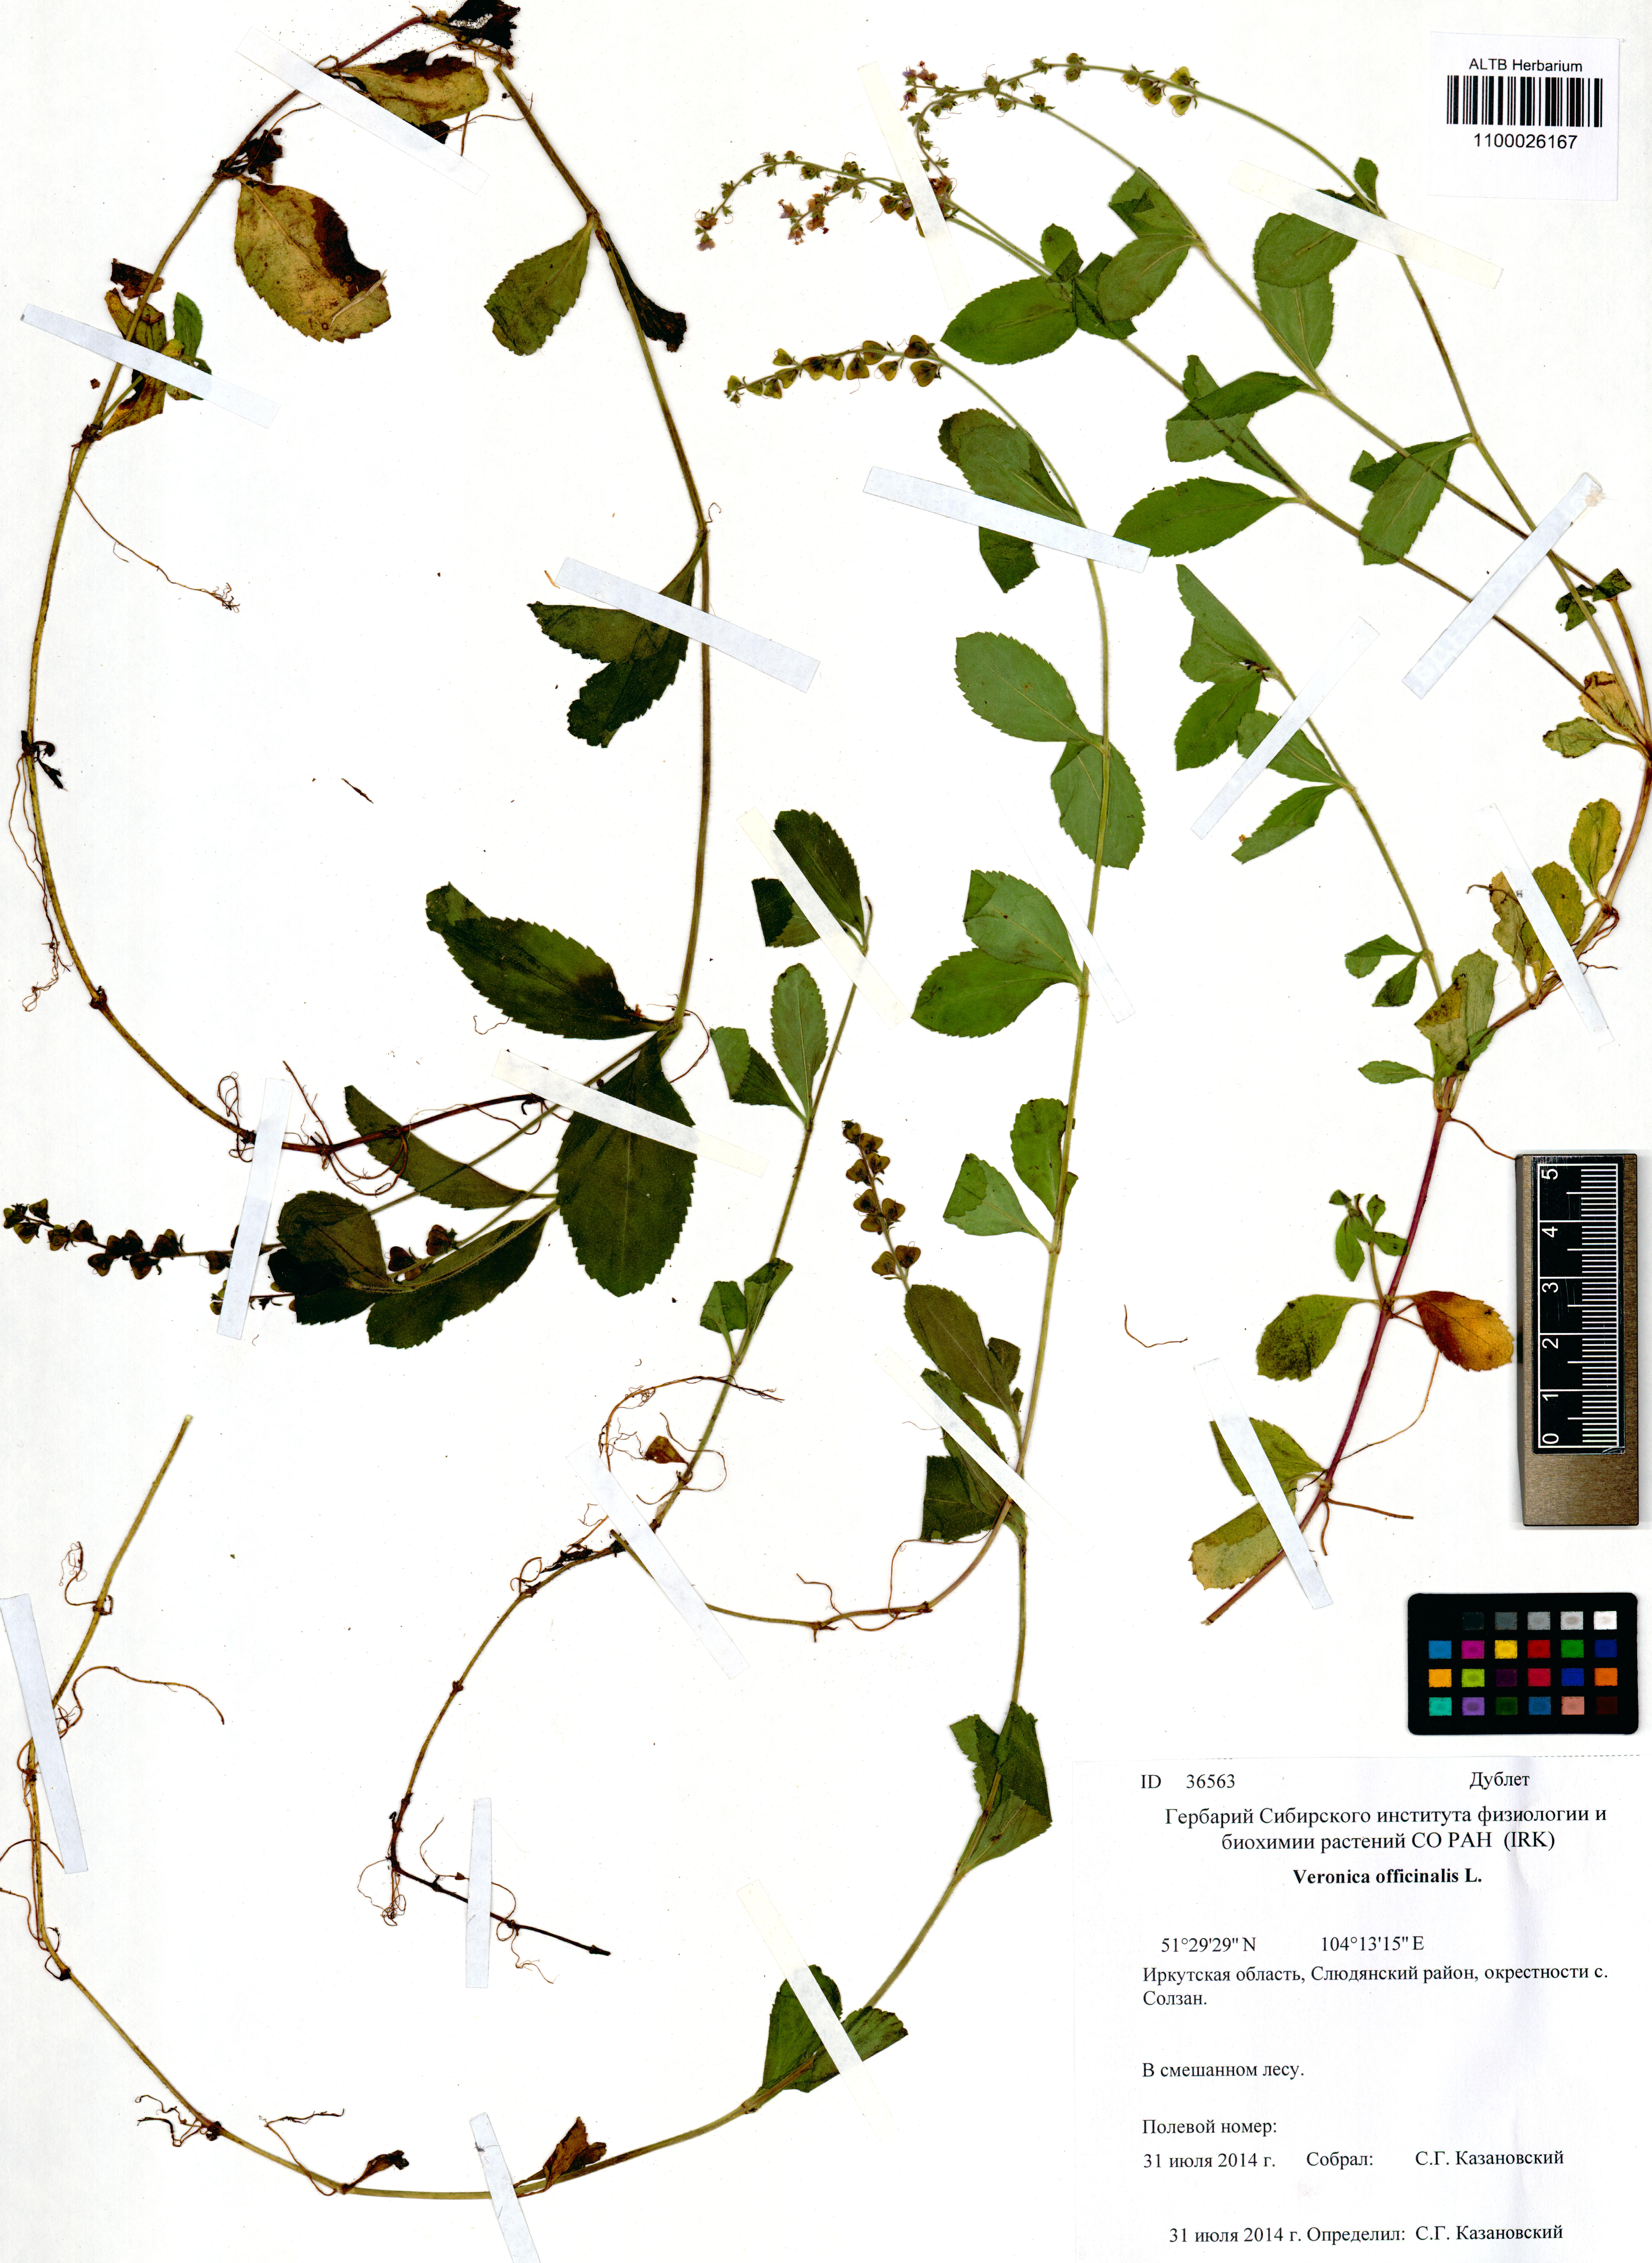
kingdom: Plantae
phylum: Tracheophyta
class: Magnoliopsida
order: Lamiales
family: Plantaginaceae
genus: Veronica
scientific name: Veronica officinalis
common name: Common speedwell
